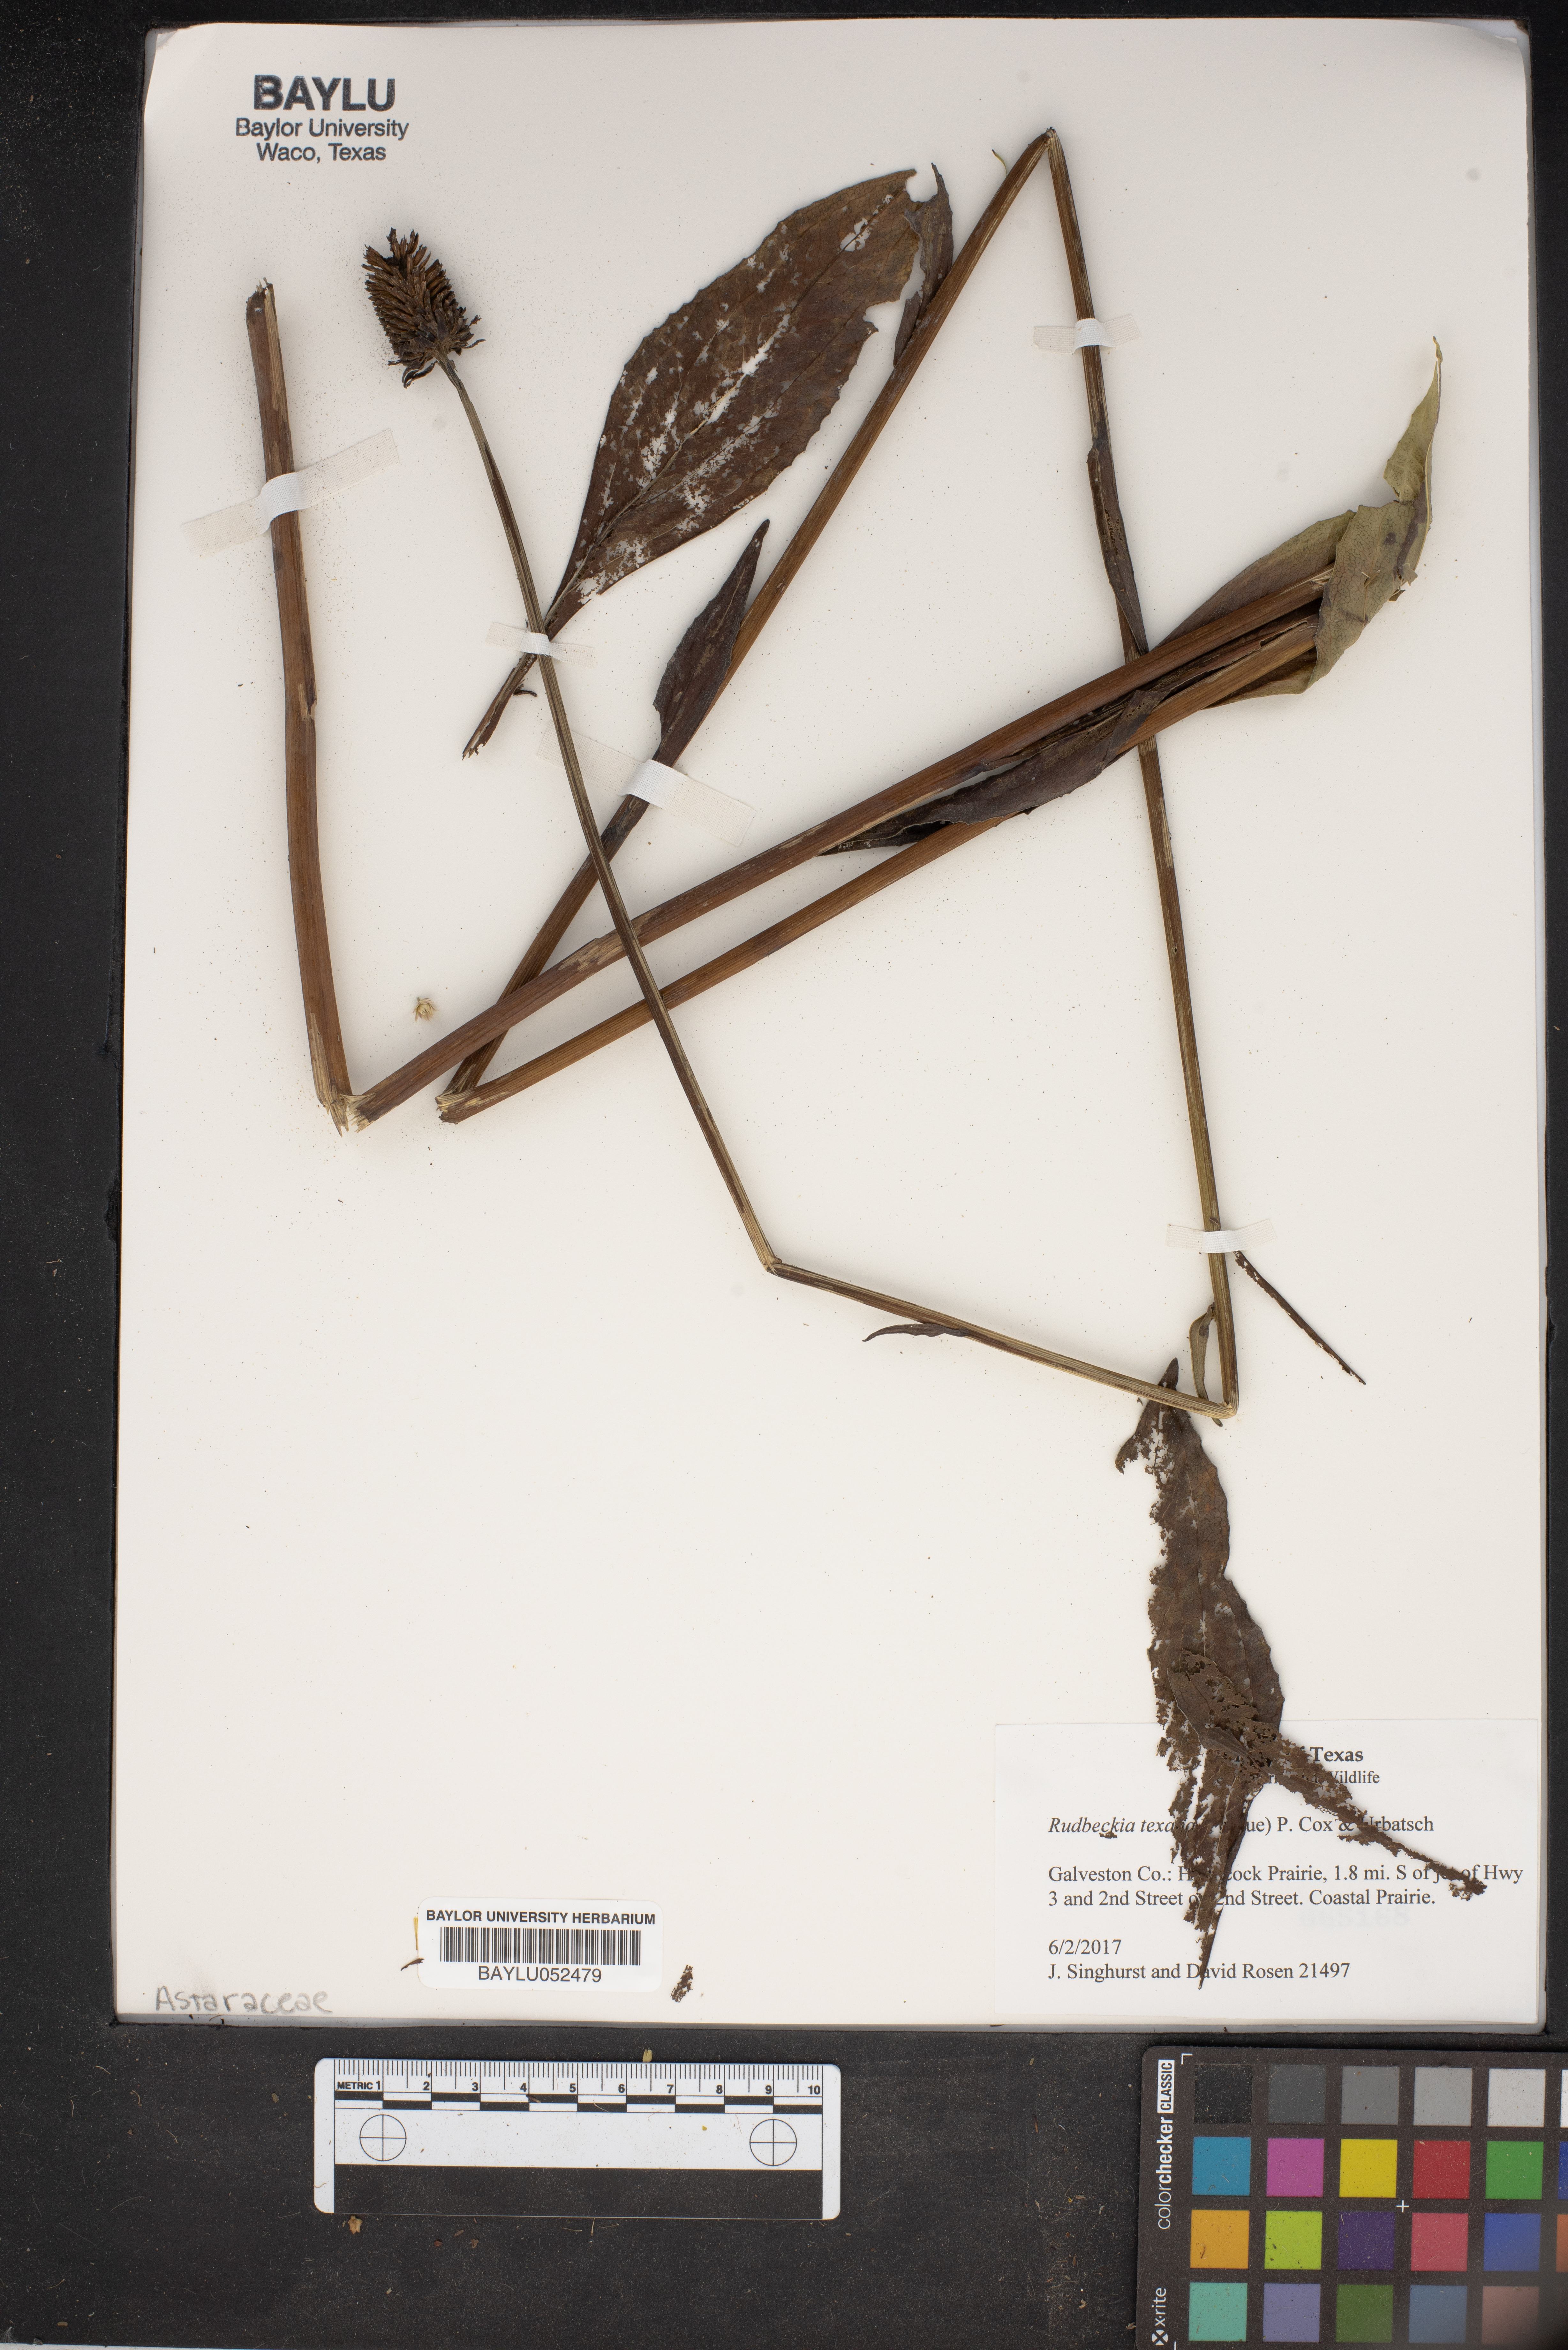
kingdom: Plantae
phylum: Tracheophyta
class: Magnoliopsida
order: Asterales
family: Asteraceae
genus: Rudbeckia
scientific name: Rudbeckia texana
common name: Texas coneflower
